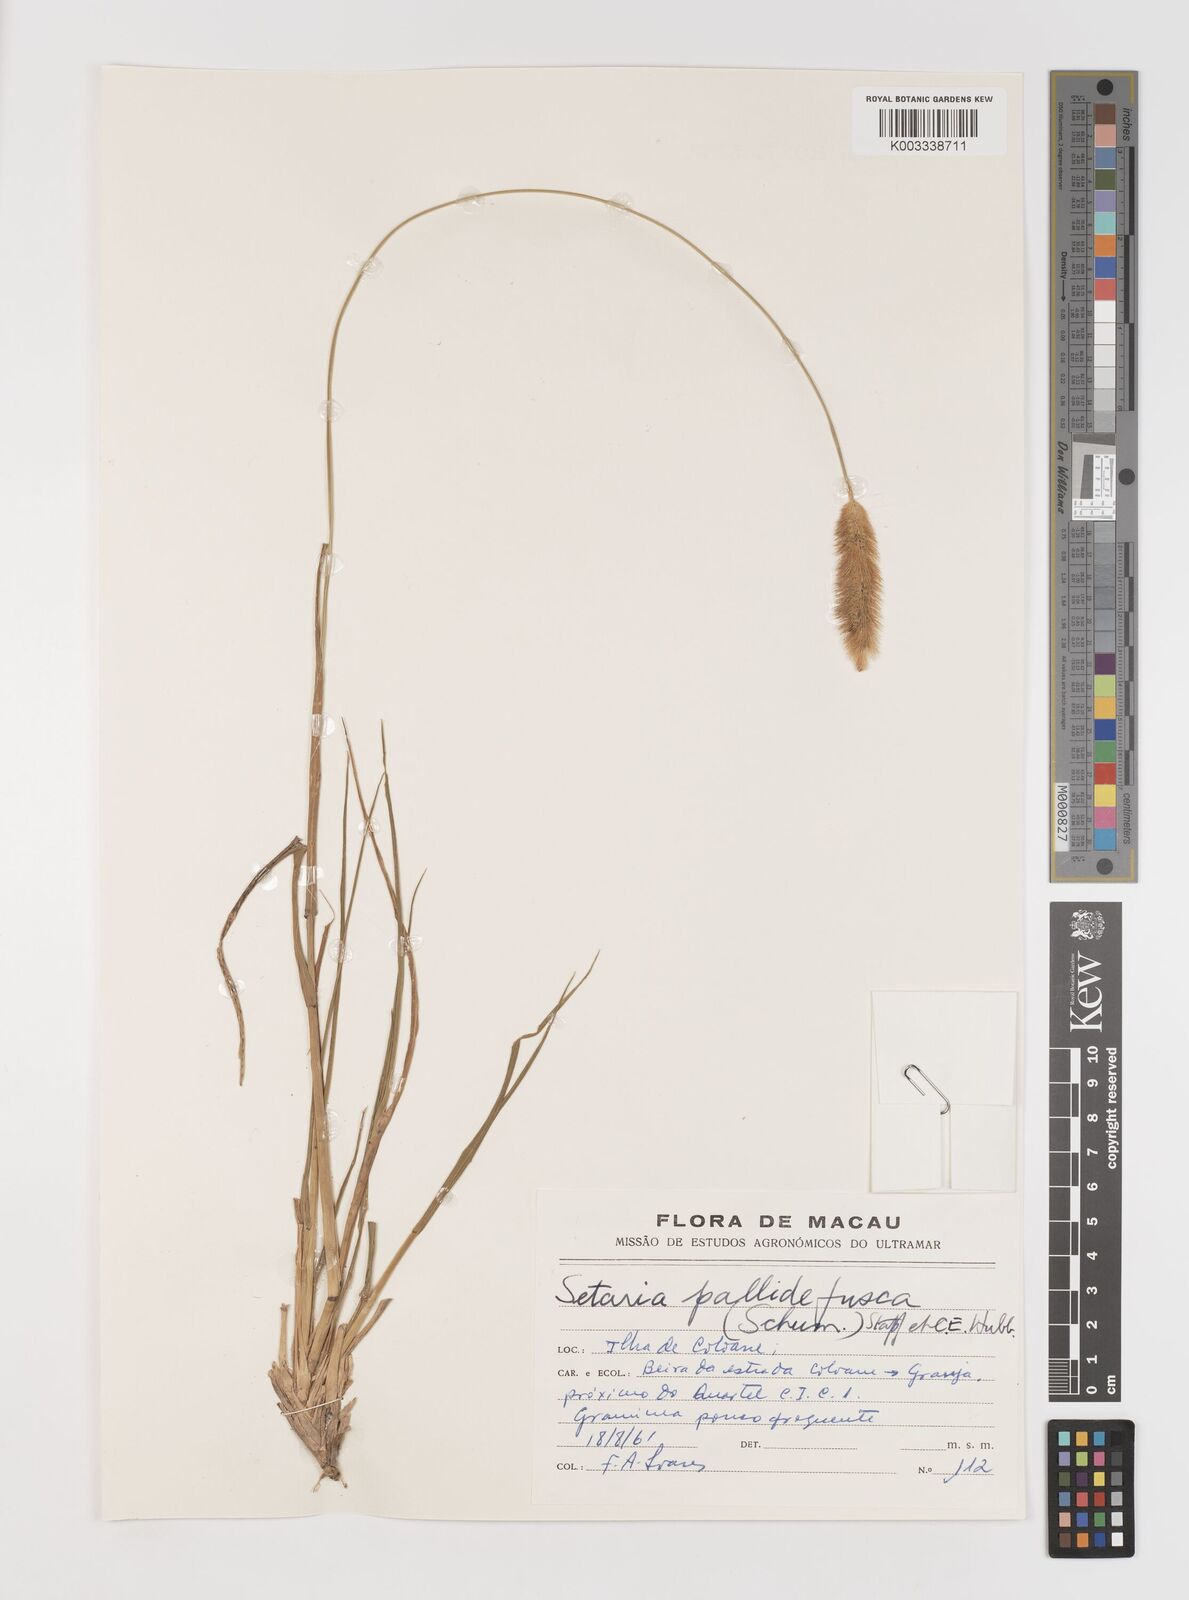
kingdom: Plantae
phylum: Tracheophyta
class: Liliopsida
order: Poales
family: Poaceae
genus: Setaria
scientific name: Setaria parviflora
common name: Knotroot bristle-grass
